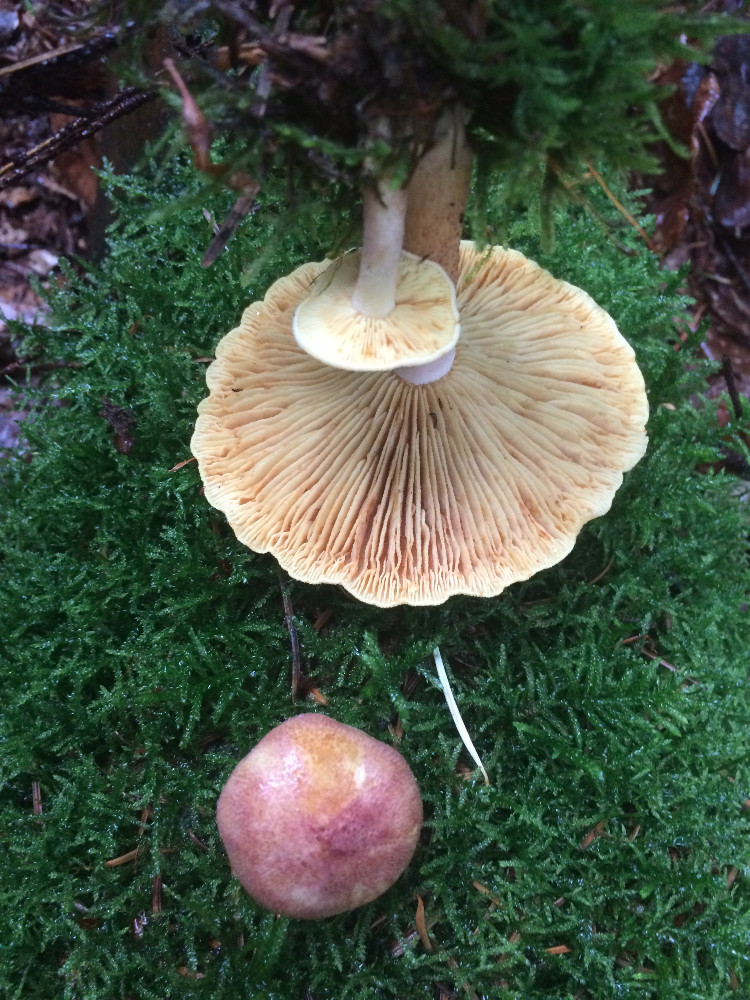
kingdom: Fungi
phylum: Basidiomycota
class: Agaricomycetes
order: Agaricales
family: Tricholomataceae
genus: Tricholomopsis
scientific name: Tricholomopsis rutilans
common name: purpur-væbnerhat
